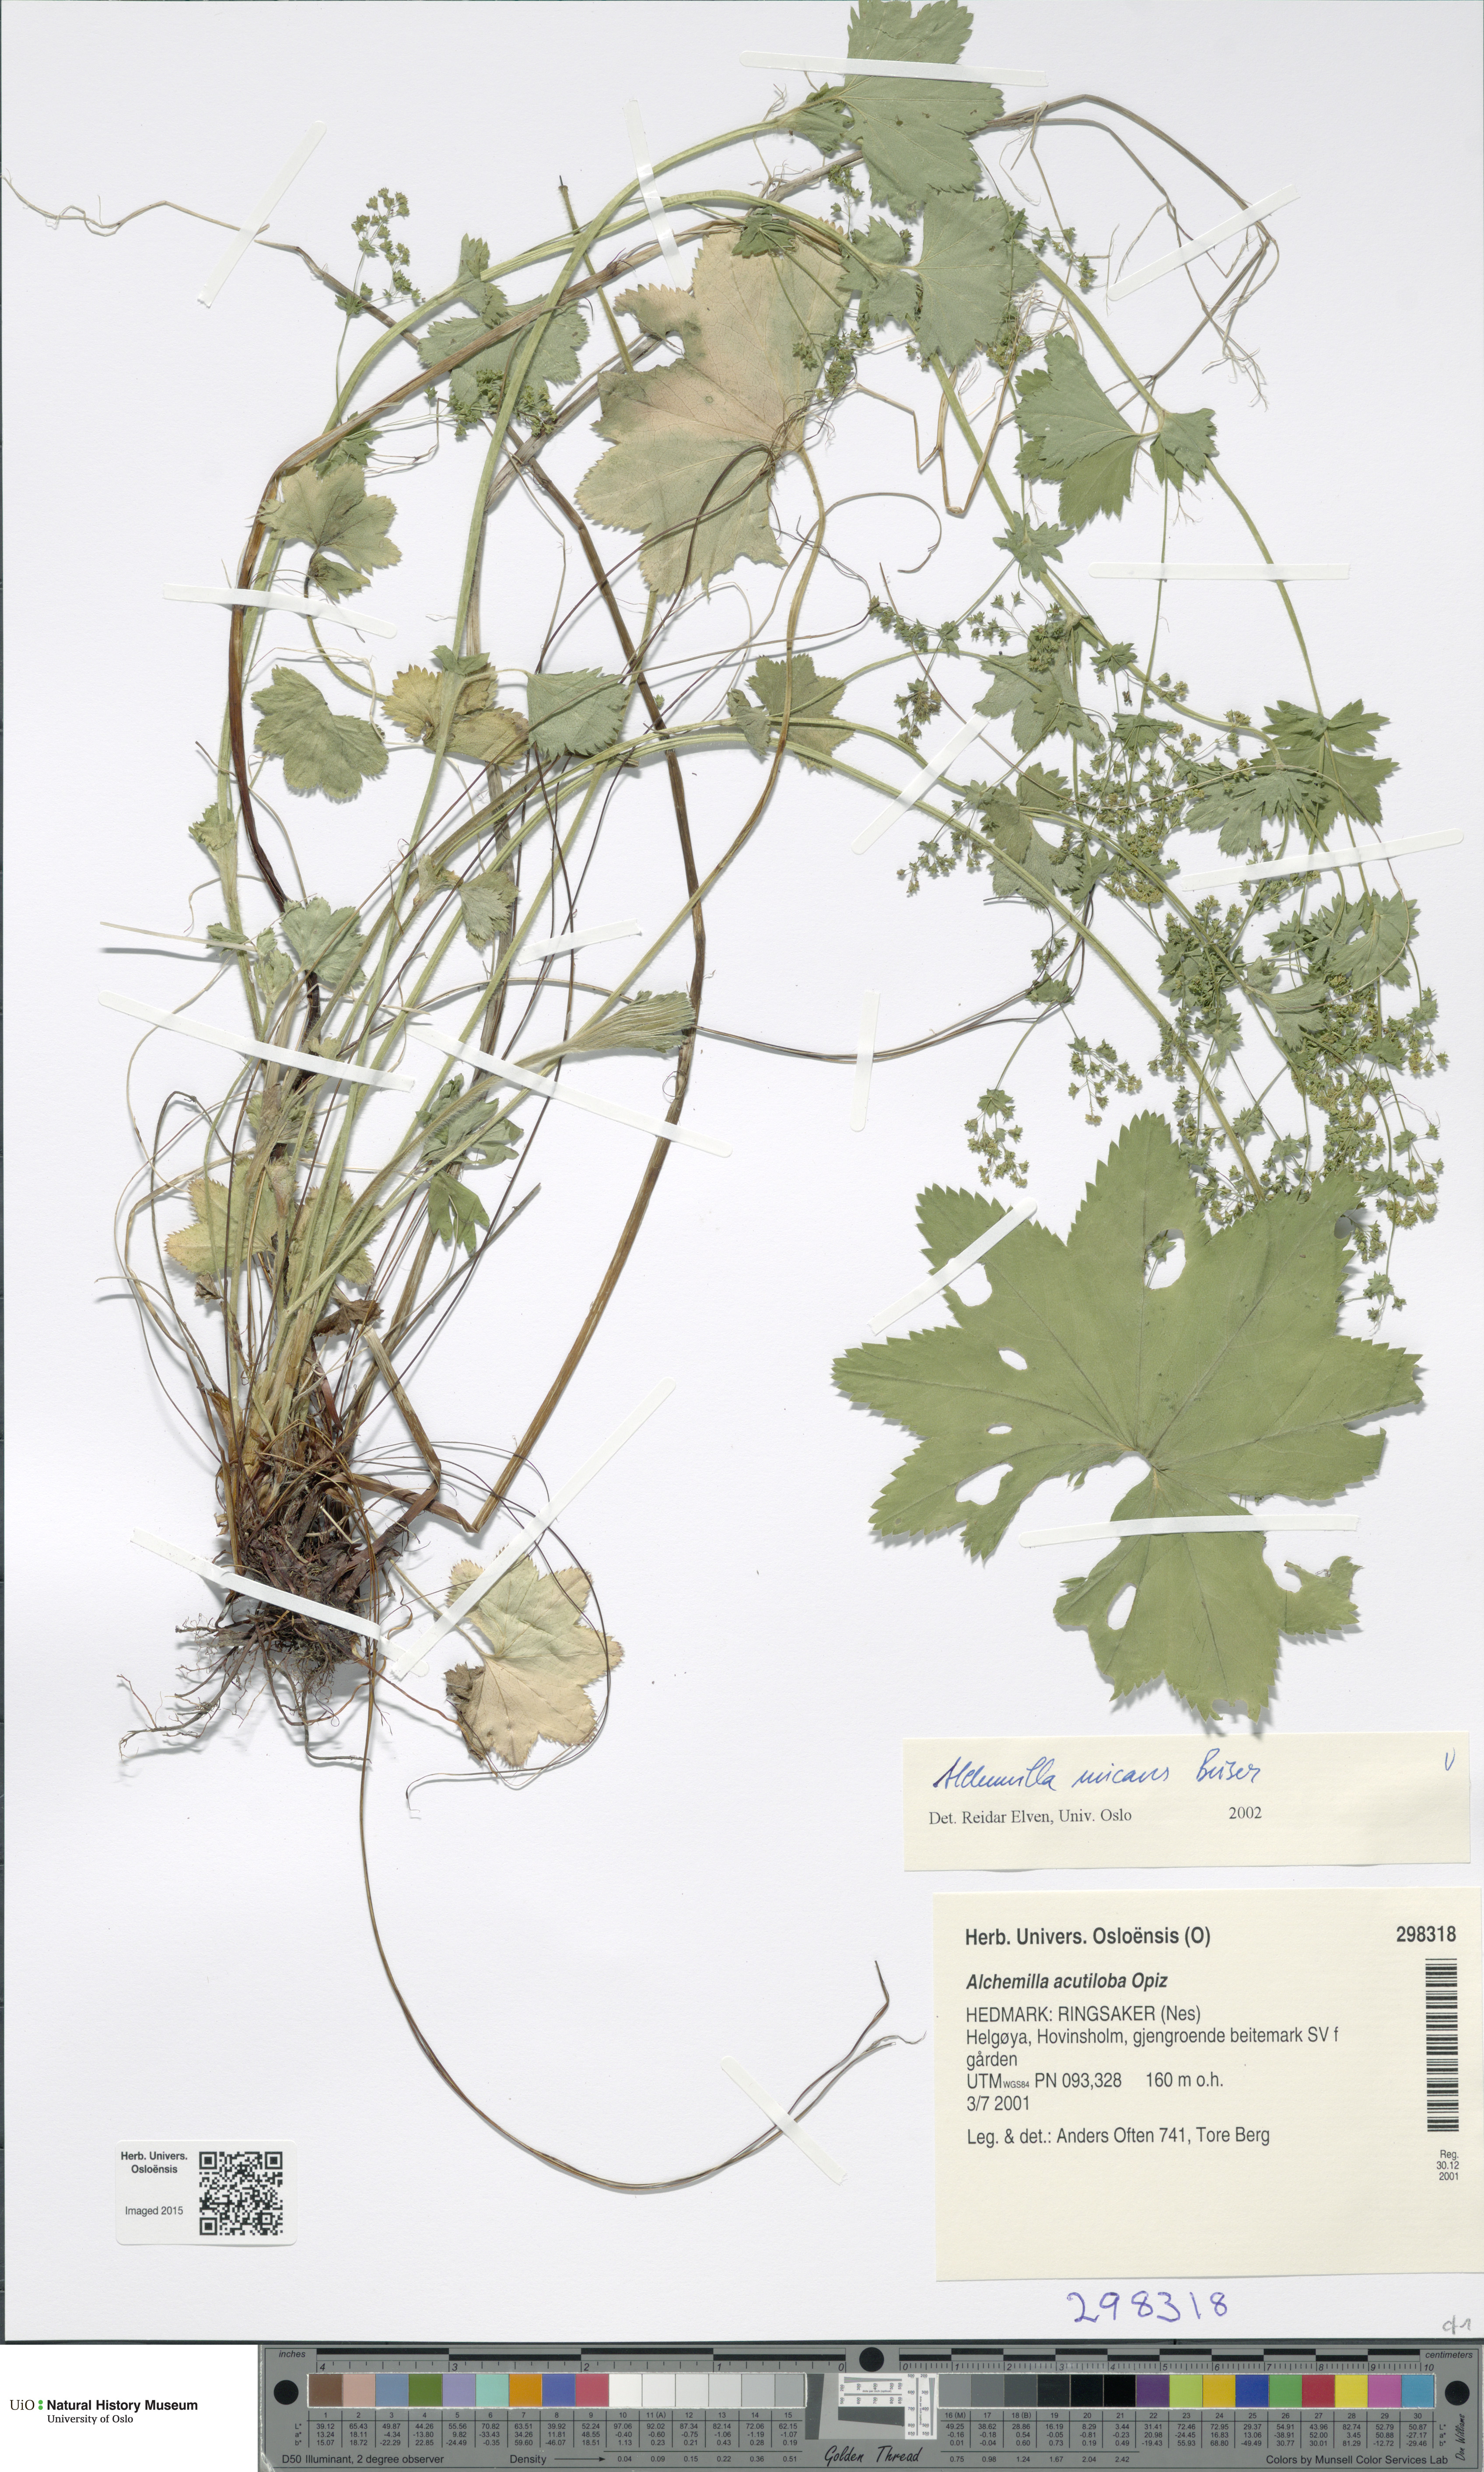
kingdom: Plantae
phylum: Tracheophyta
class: Magnoliopsida
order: Rosales
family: Rosaceae
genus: Alchemilla
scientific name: Alchemilla micans
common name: Gleaming lady's mantle
